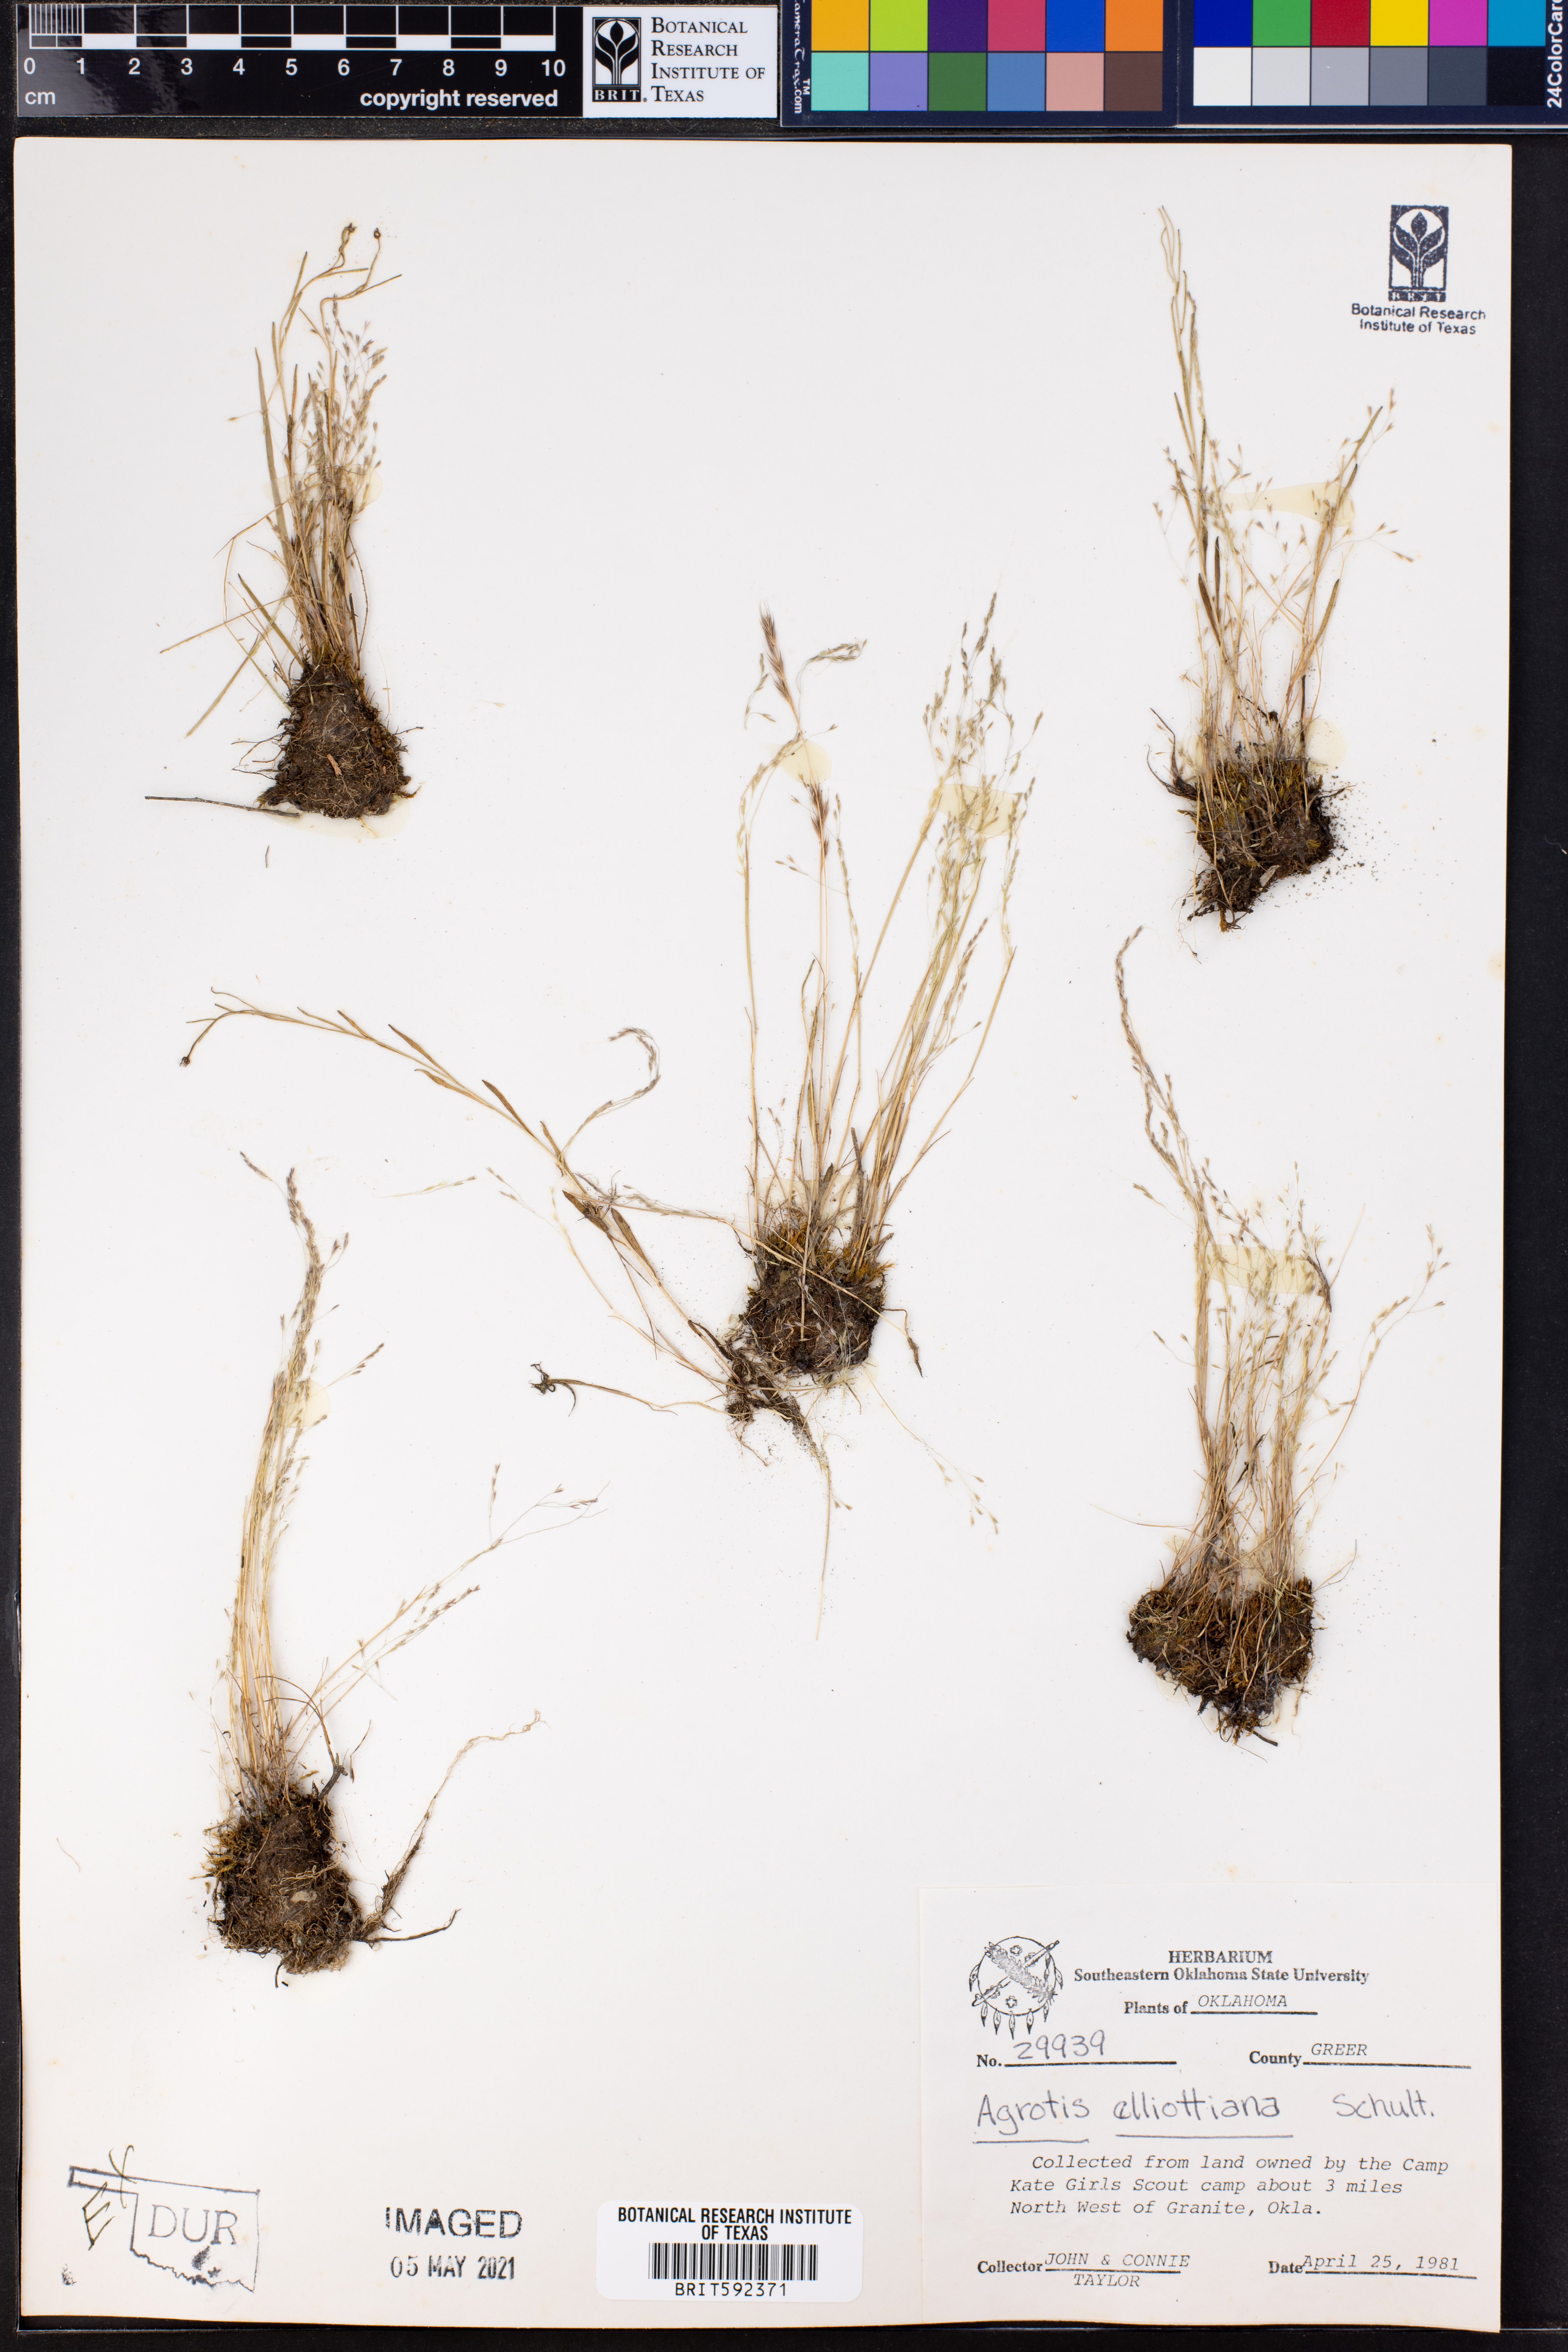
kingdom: Plantae
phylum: Tracheophyta
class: Liliopsida
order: Poales
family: Poaceae
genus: Agrostis
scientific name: Agrostis elliottiana
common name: Elliott's bent
